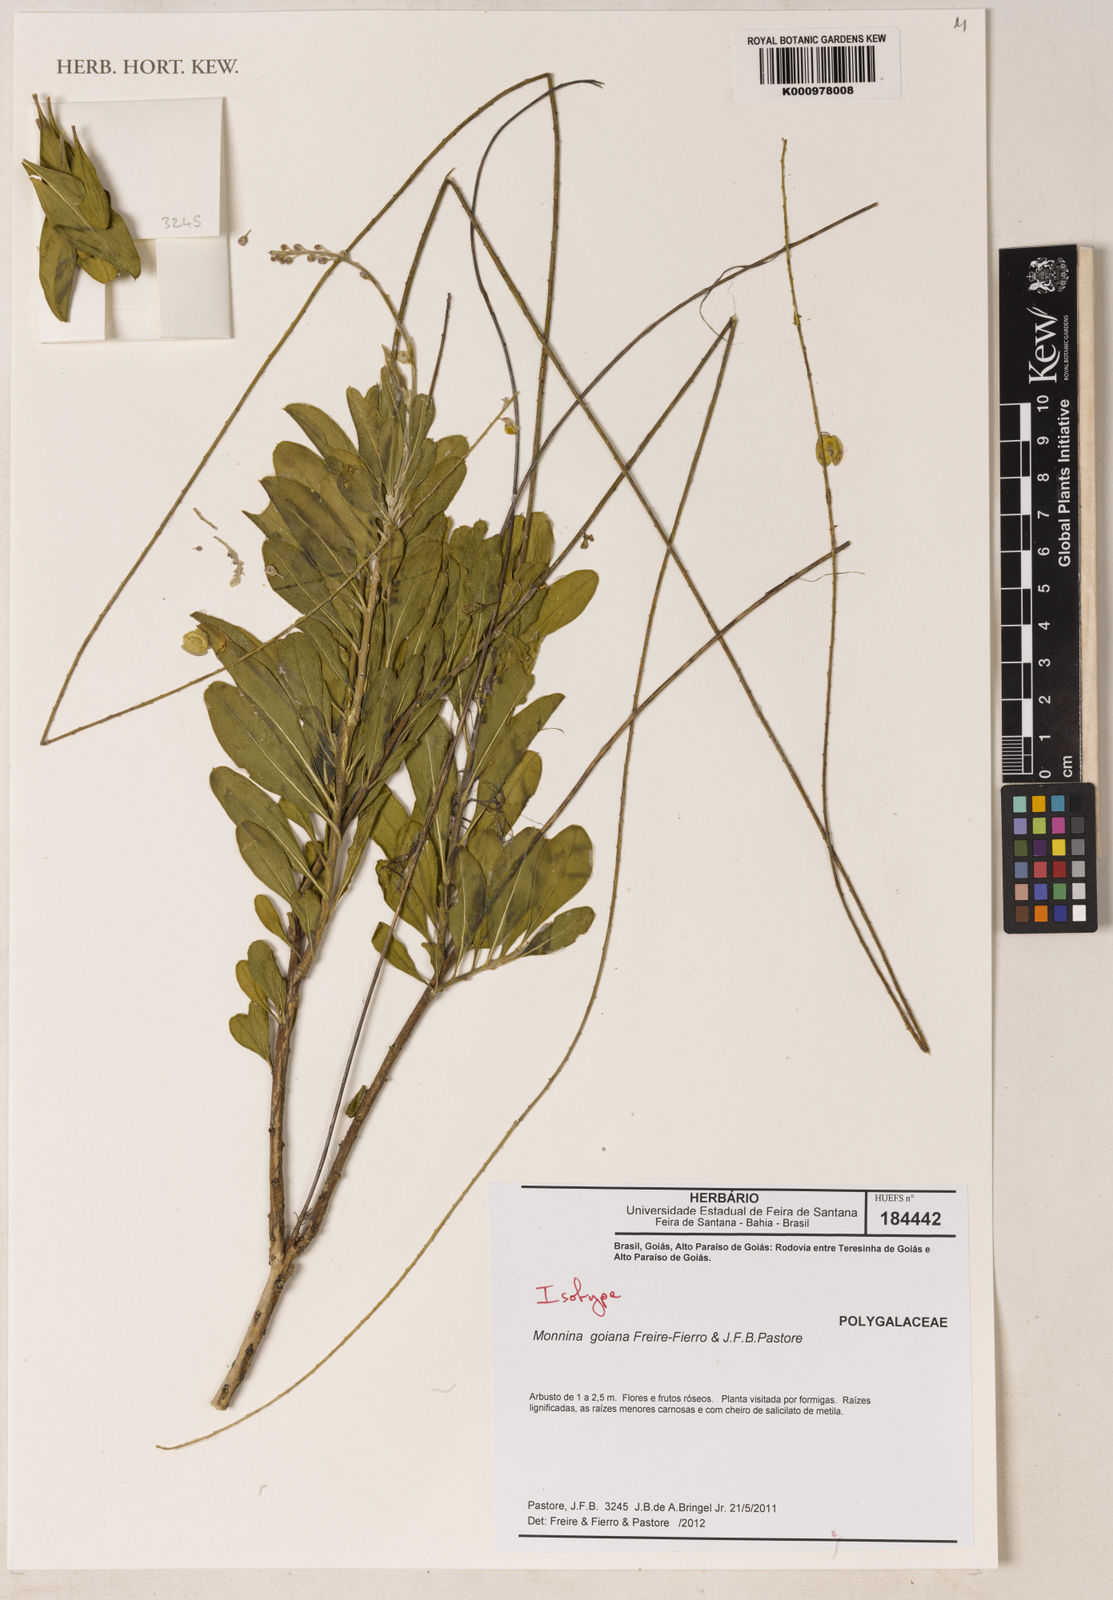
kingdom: Plantae
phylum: Tracheophyta
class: Magnoliopsida
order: Fabales
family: Polygalaceae
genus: Monnina
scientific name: Monnina goiana
